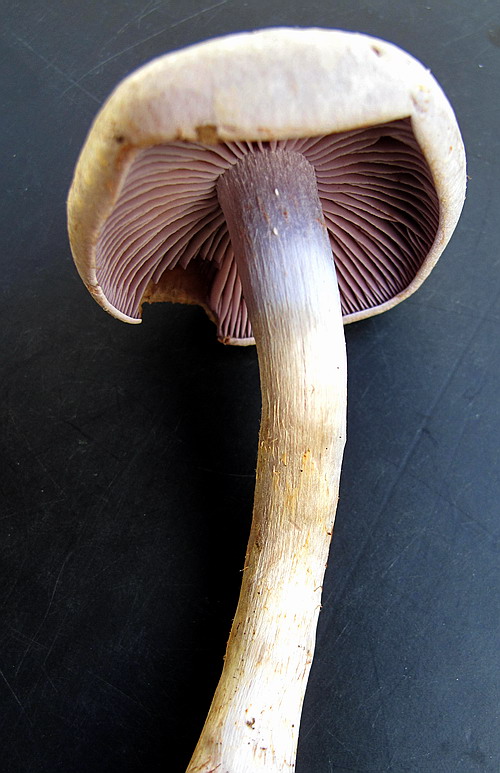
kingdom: Fungi
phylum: Basidiomycota
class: Agaricomycetes
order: Agaricales
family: Cortinariaceae
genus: Cortinarius
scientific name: Cortinarius lebretonii
